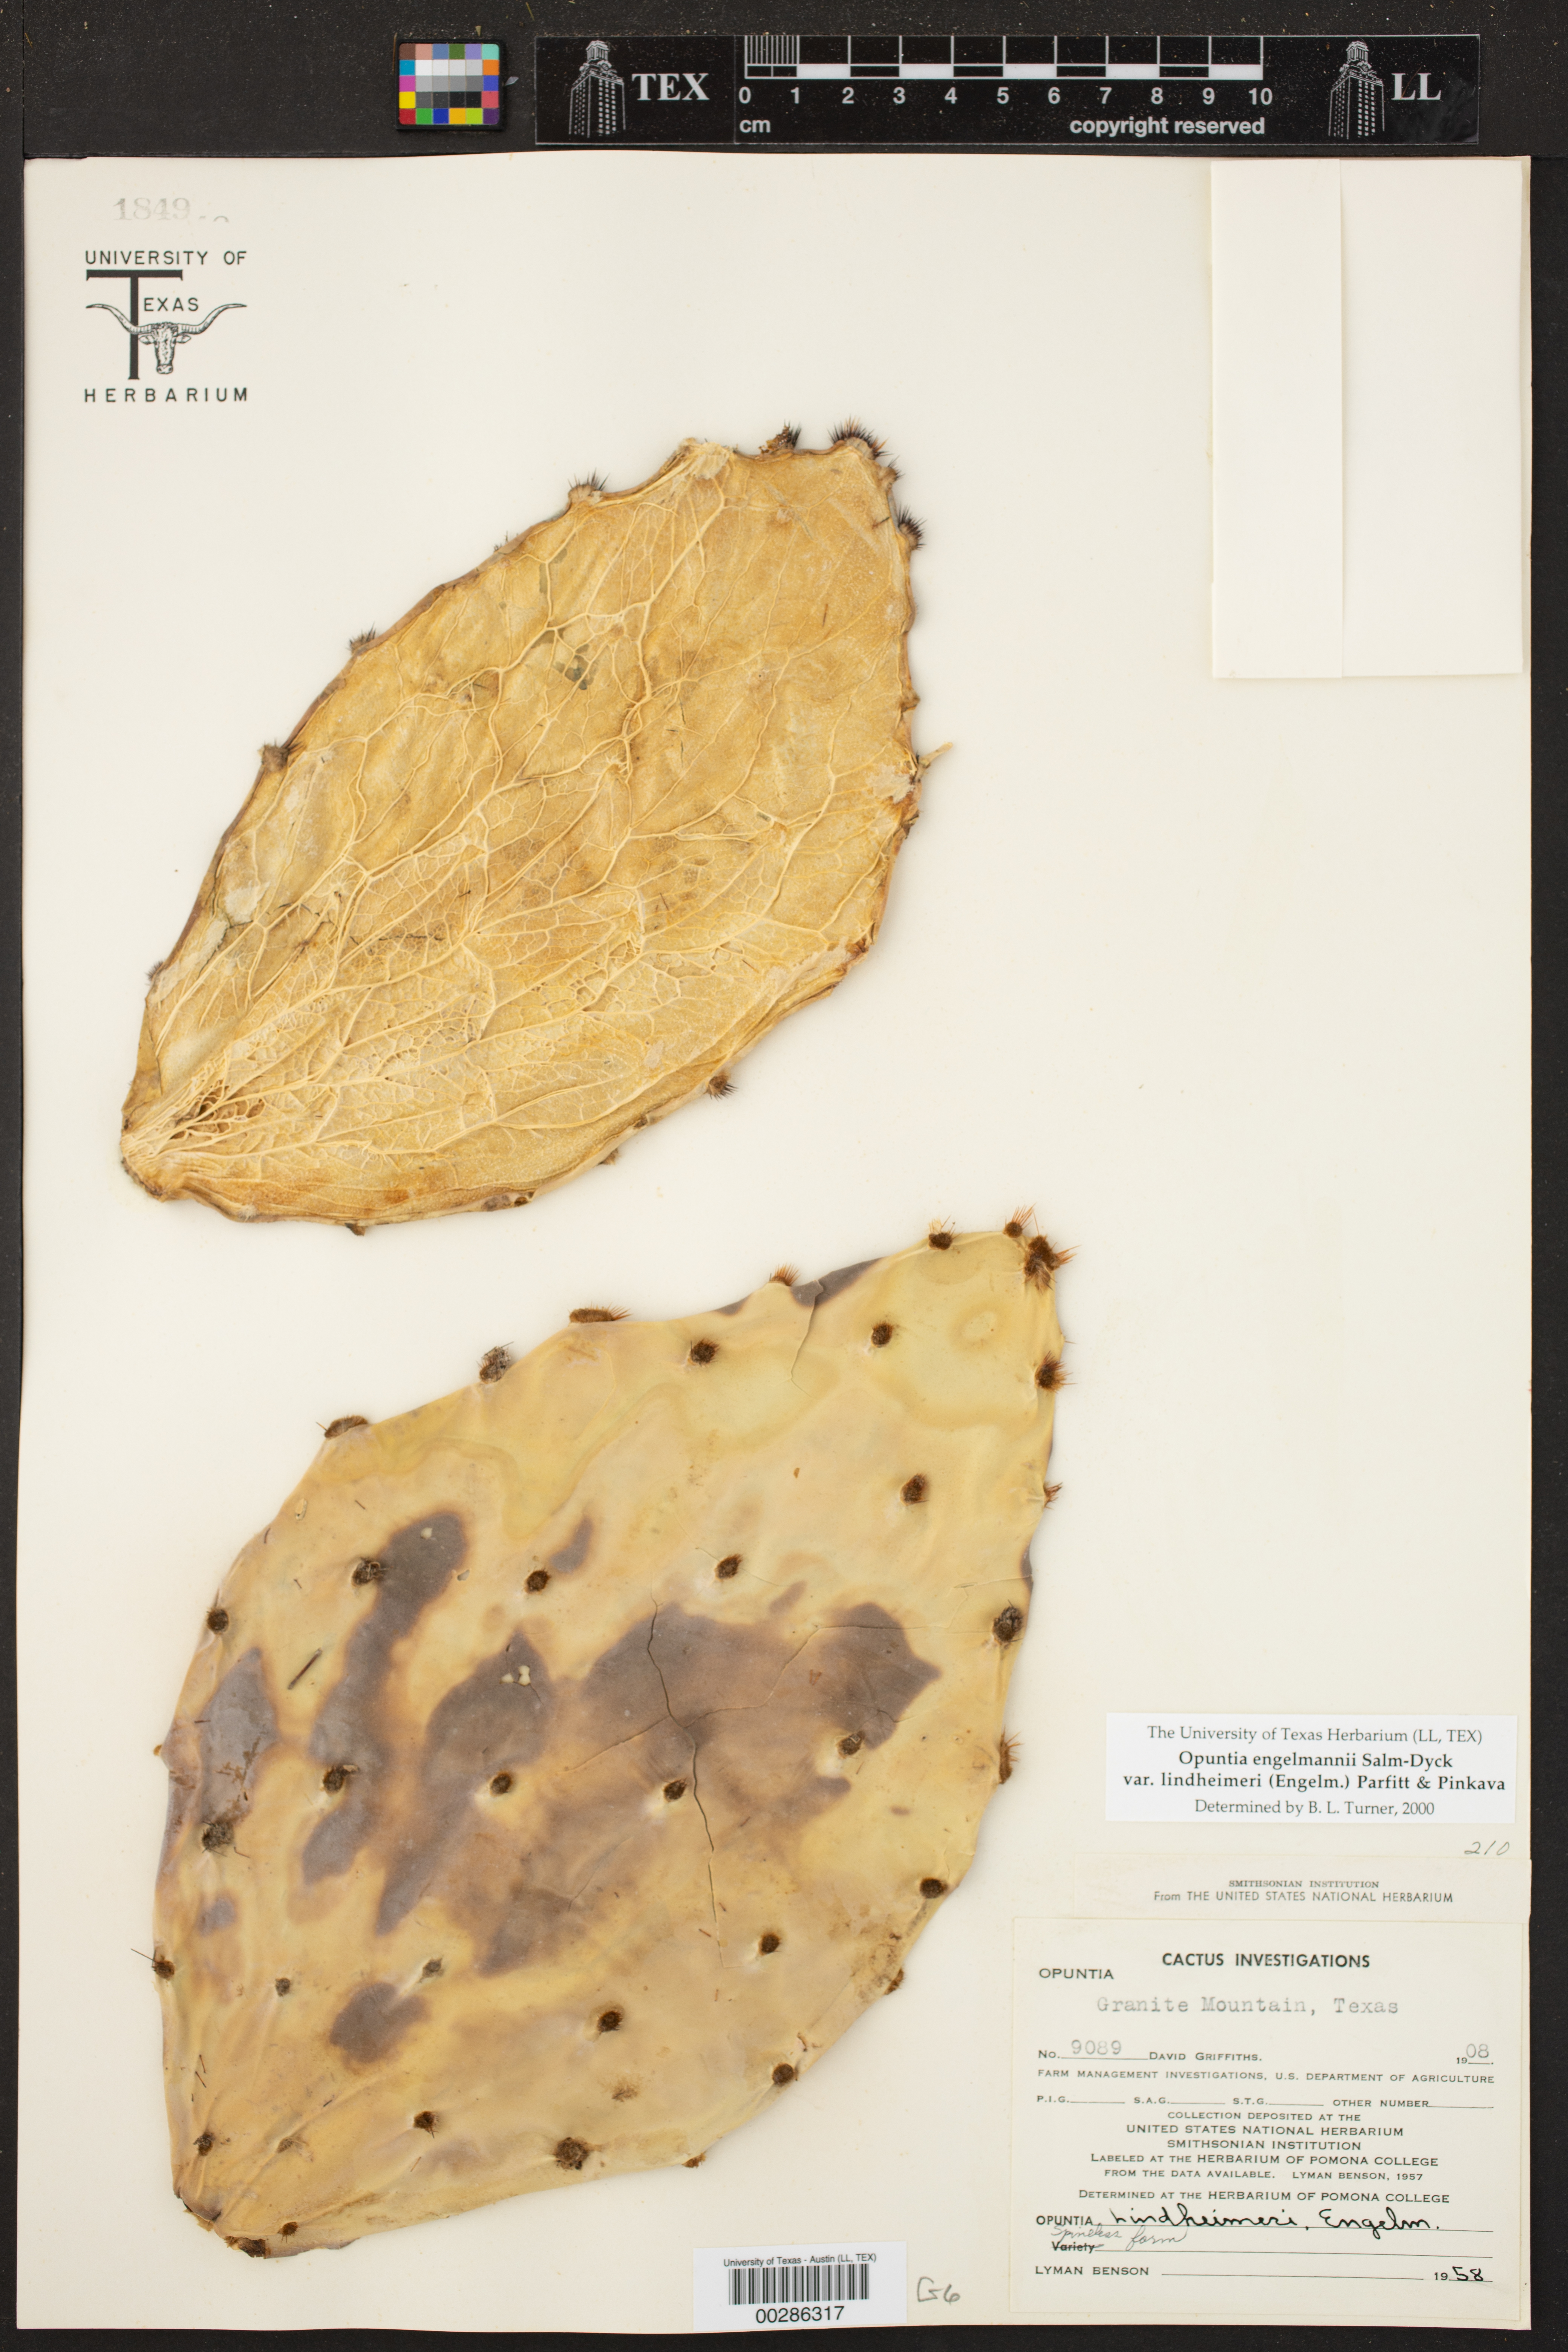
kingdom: Plantae
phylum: Tracheophyta
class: Magnoliopsida
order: Caryophyllales
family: Cactaceae
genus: Opuntia
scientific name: Opuntia engelmannii
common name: Cactus-apple
